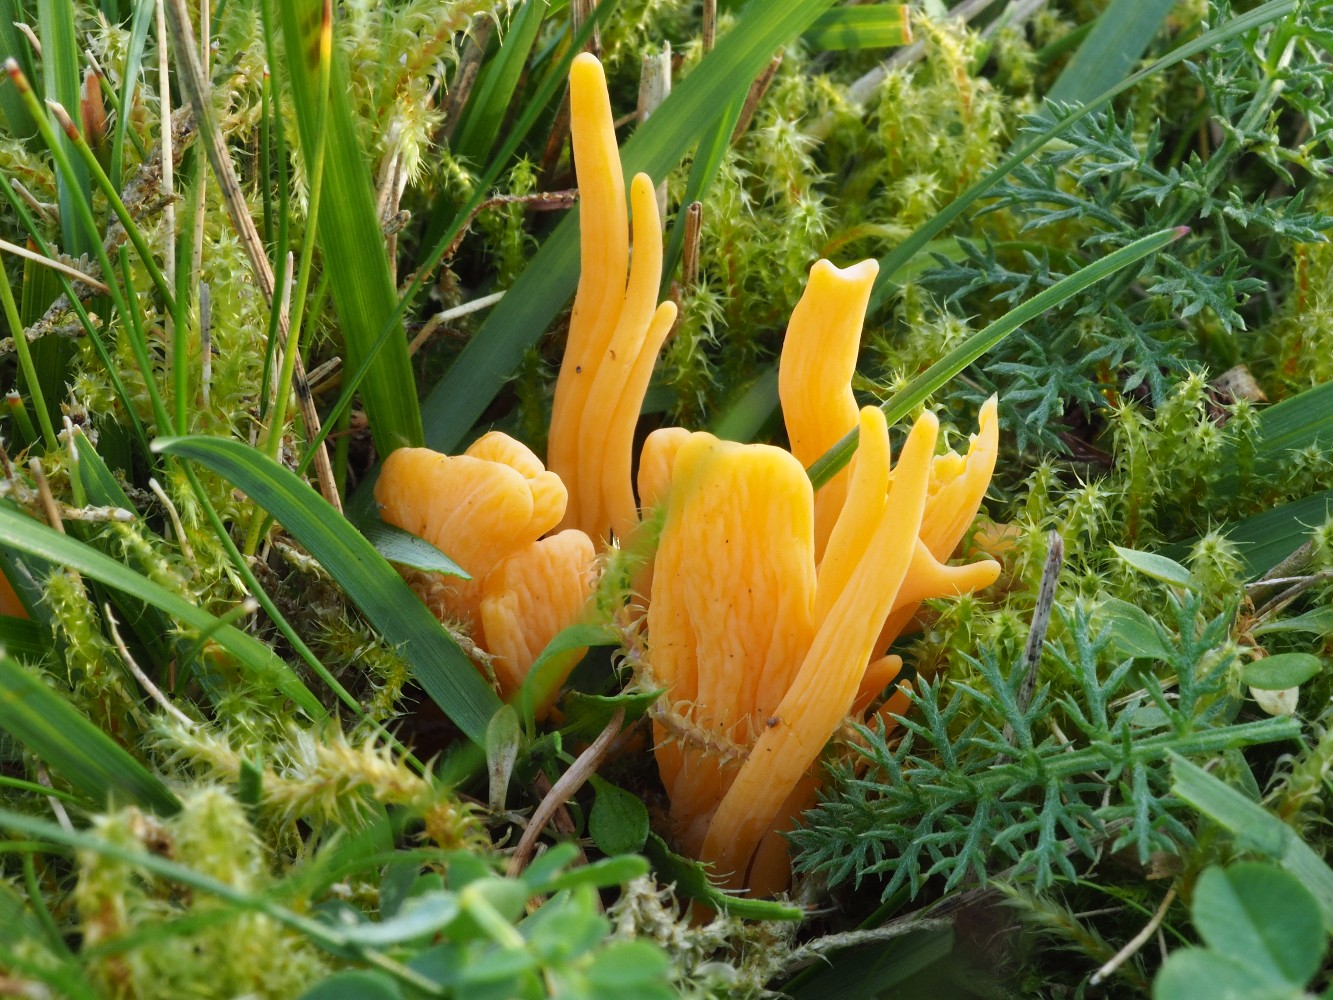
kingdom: Fungi
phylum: Basidiomycota
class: Agaricomycetes
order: Agaricales
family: Clavariaceae
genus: Clavulinopsis
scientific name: Clavulinopsis luteoalba
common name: abrikos-køllesvamp
